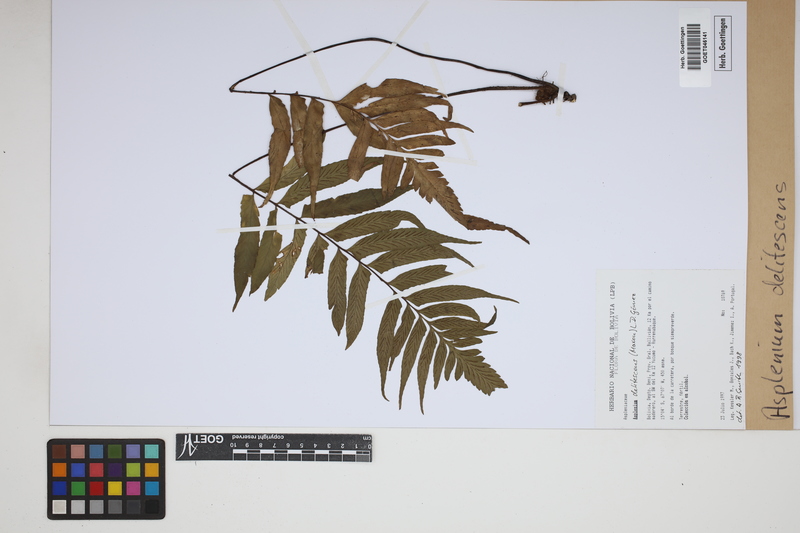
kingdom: Plantae
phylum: Tracheophyta
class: Polypodiopsida
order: Polypodiales
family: Aspleniaceae
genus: Hymenasplenium
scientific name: Hymenasplenium delitescens
